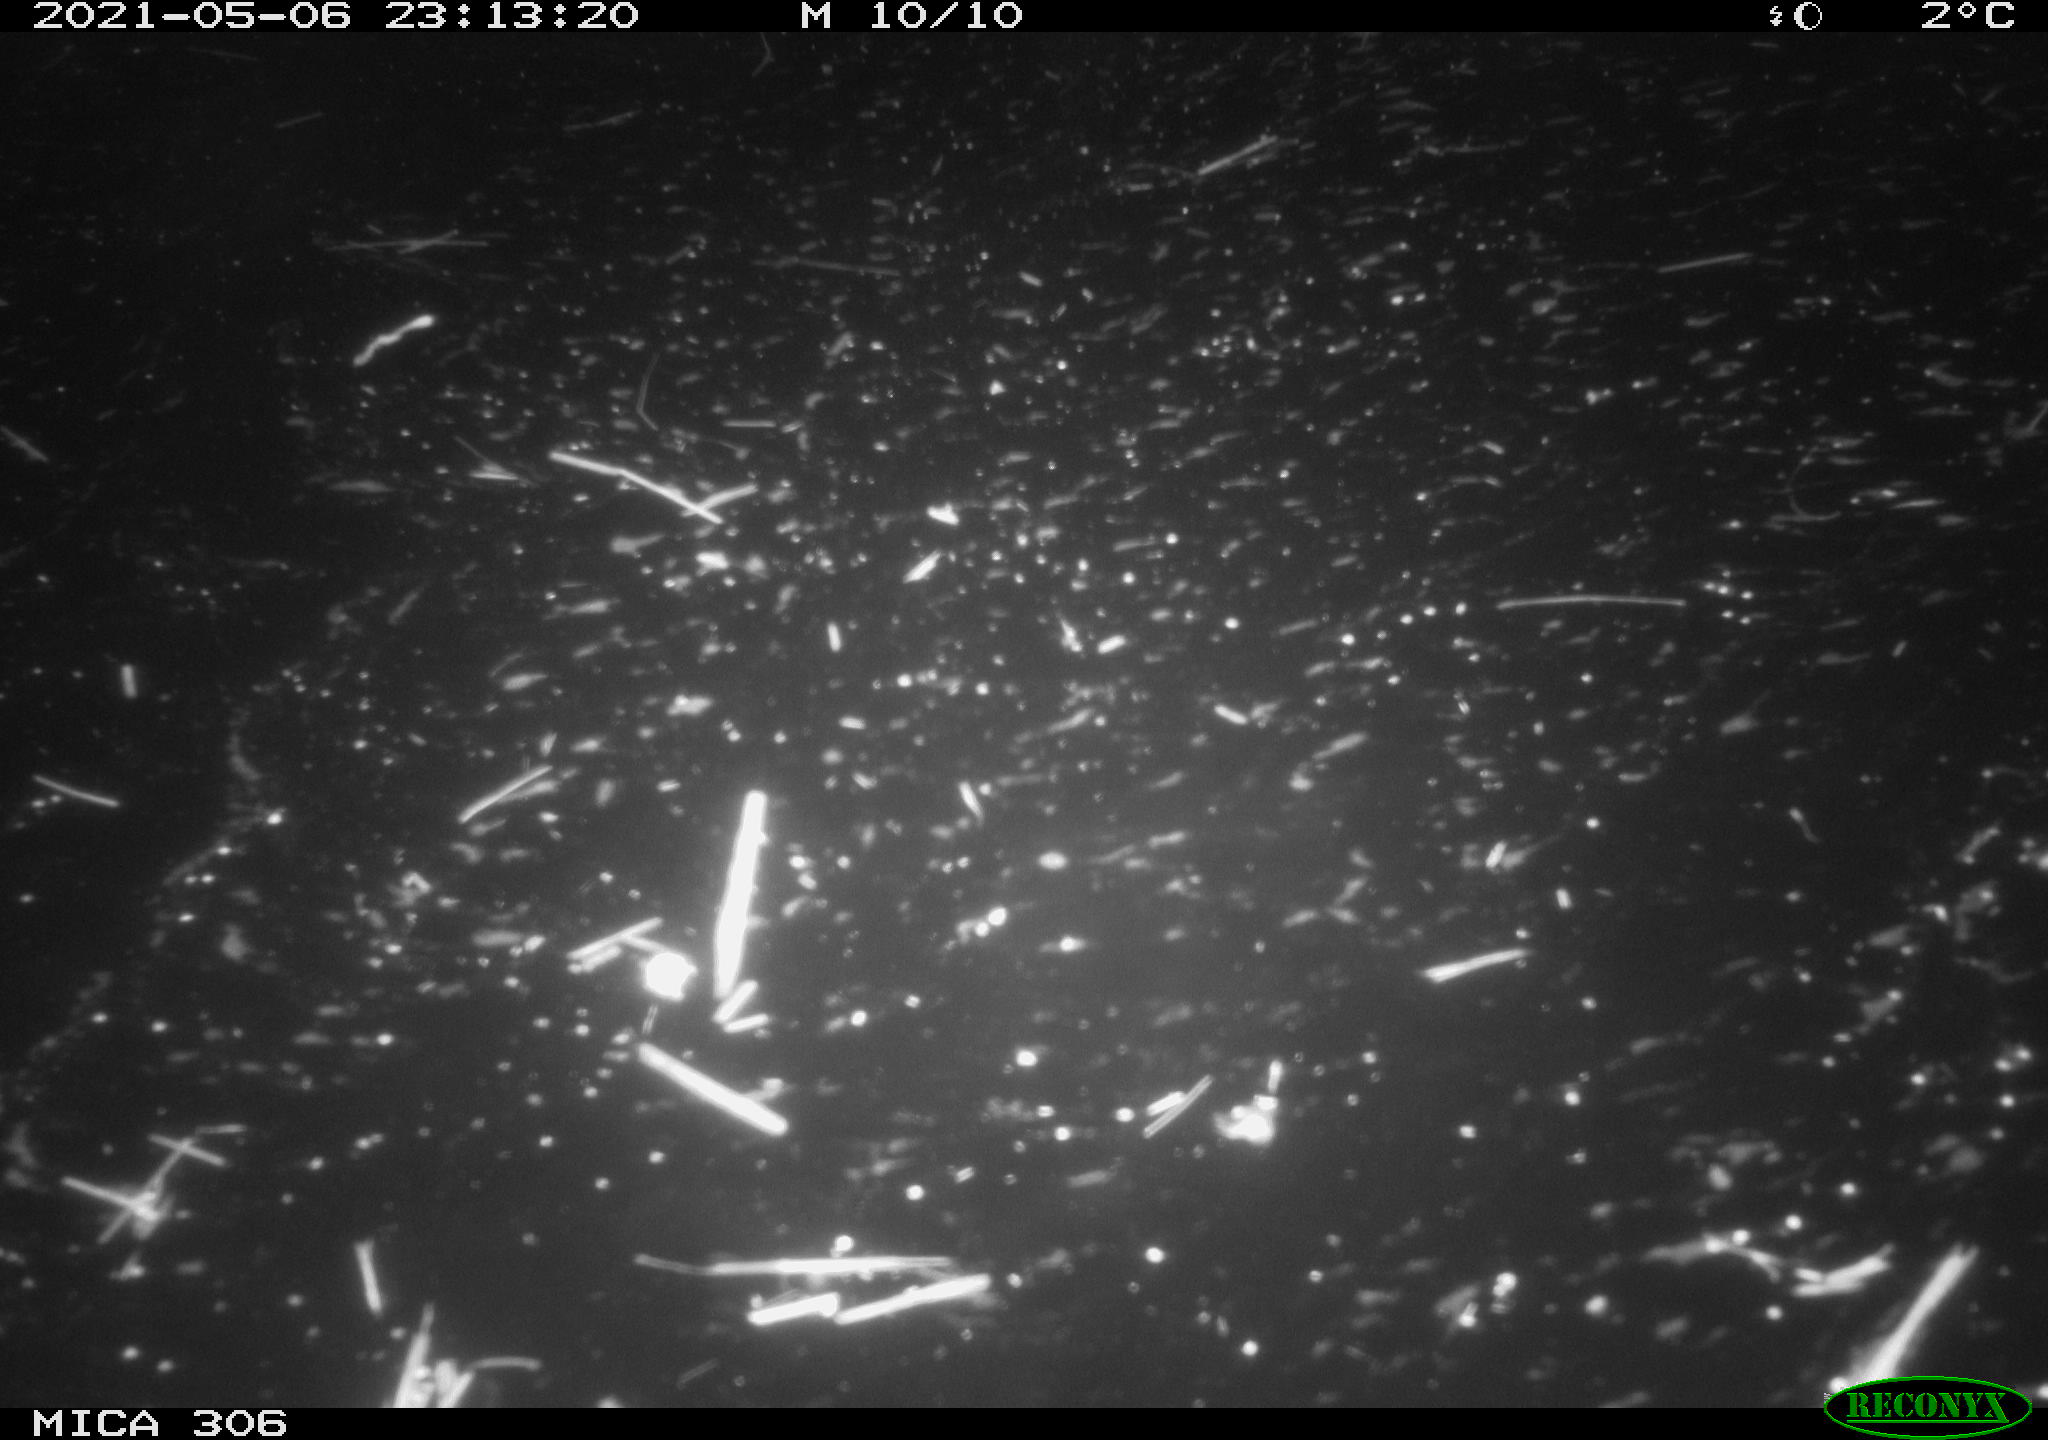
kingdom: Animalia
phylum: Chordata
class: Mammalia
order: Rodentia
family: Cricetidae
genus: Ondatra
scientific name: Ondatra zibethicus
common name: Muskrat
